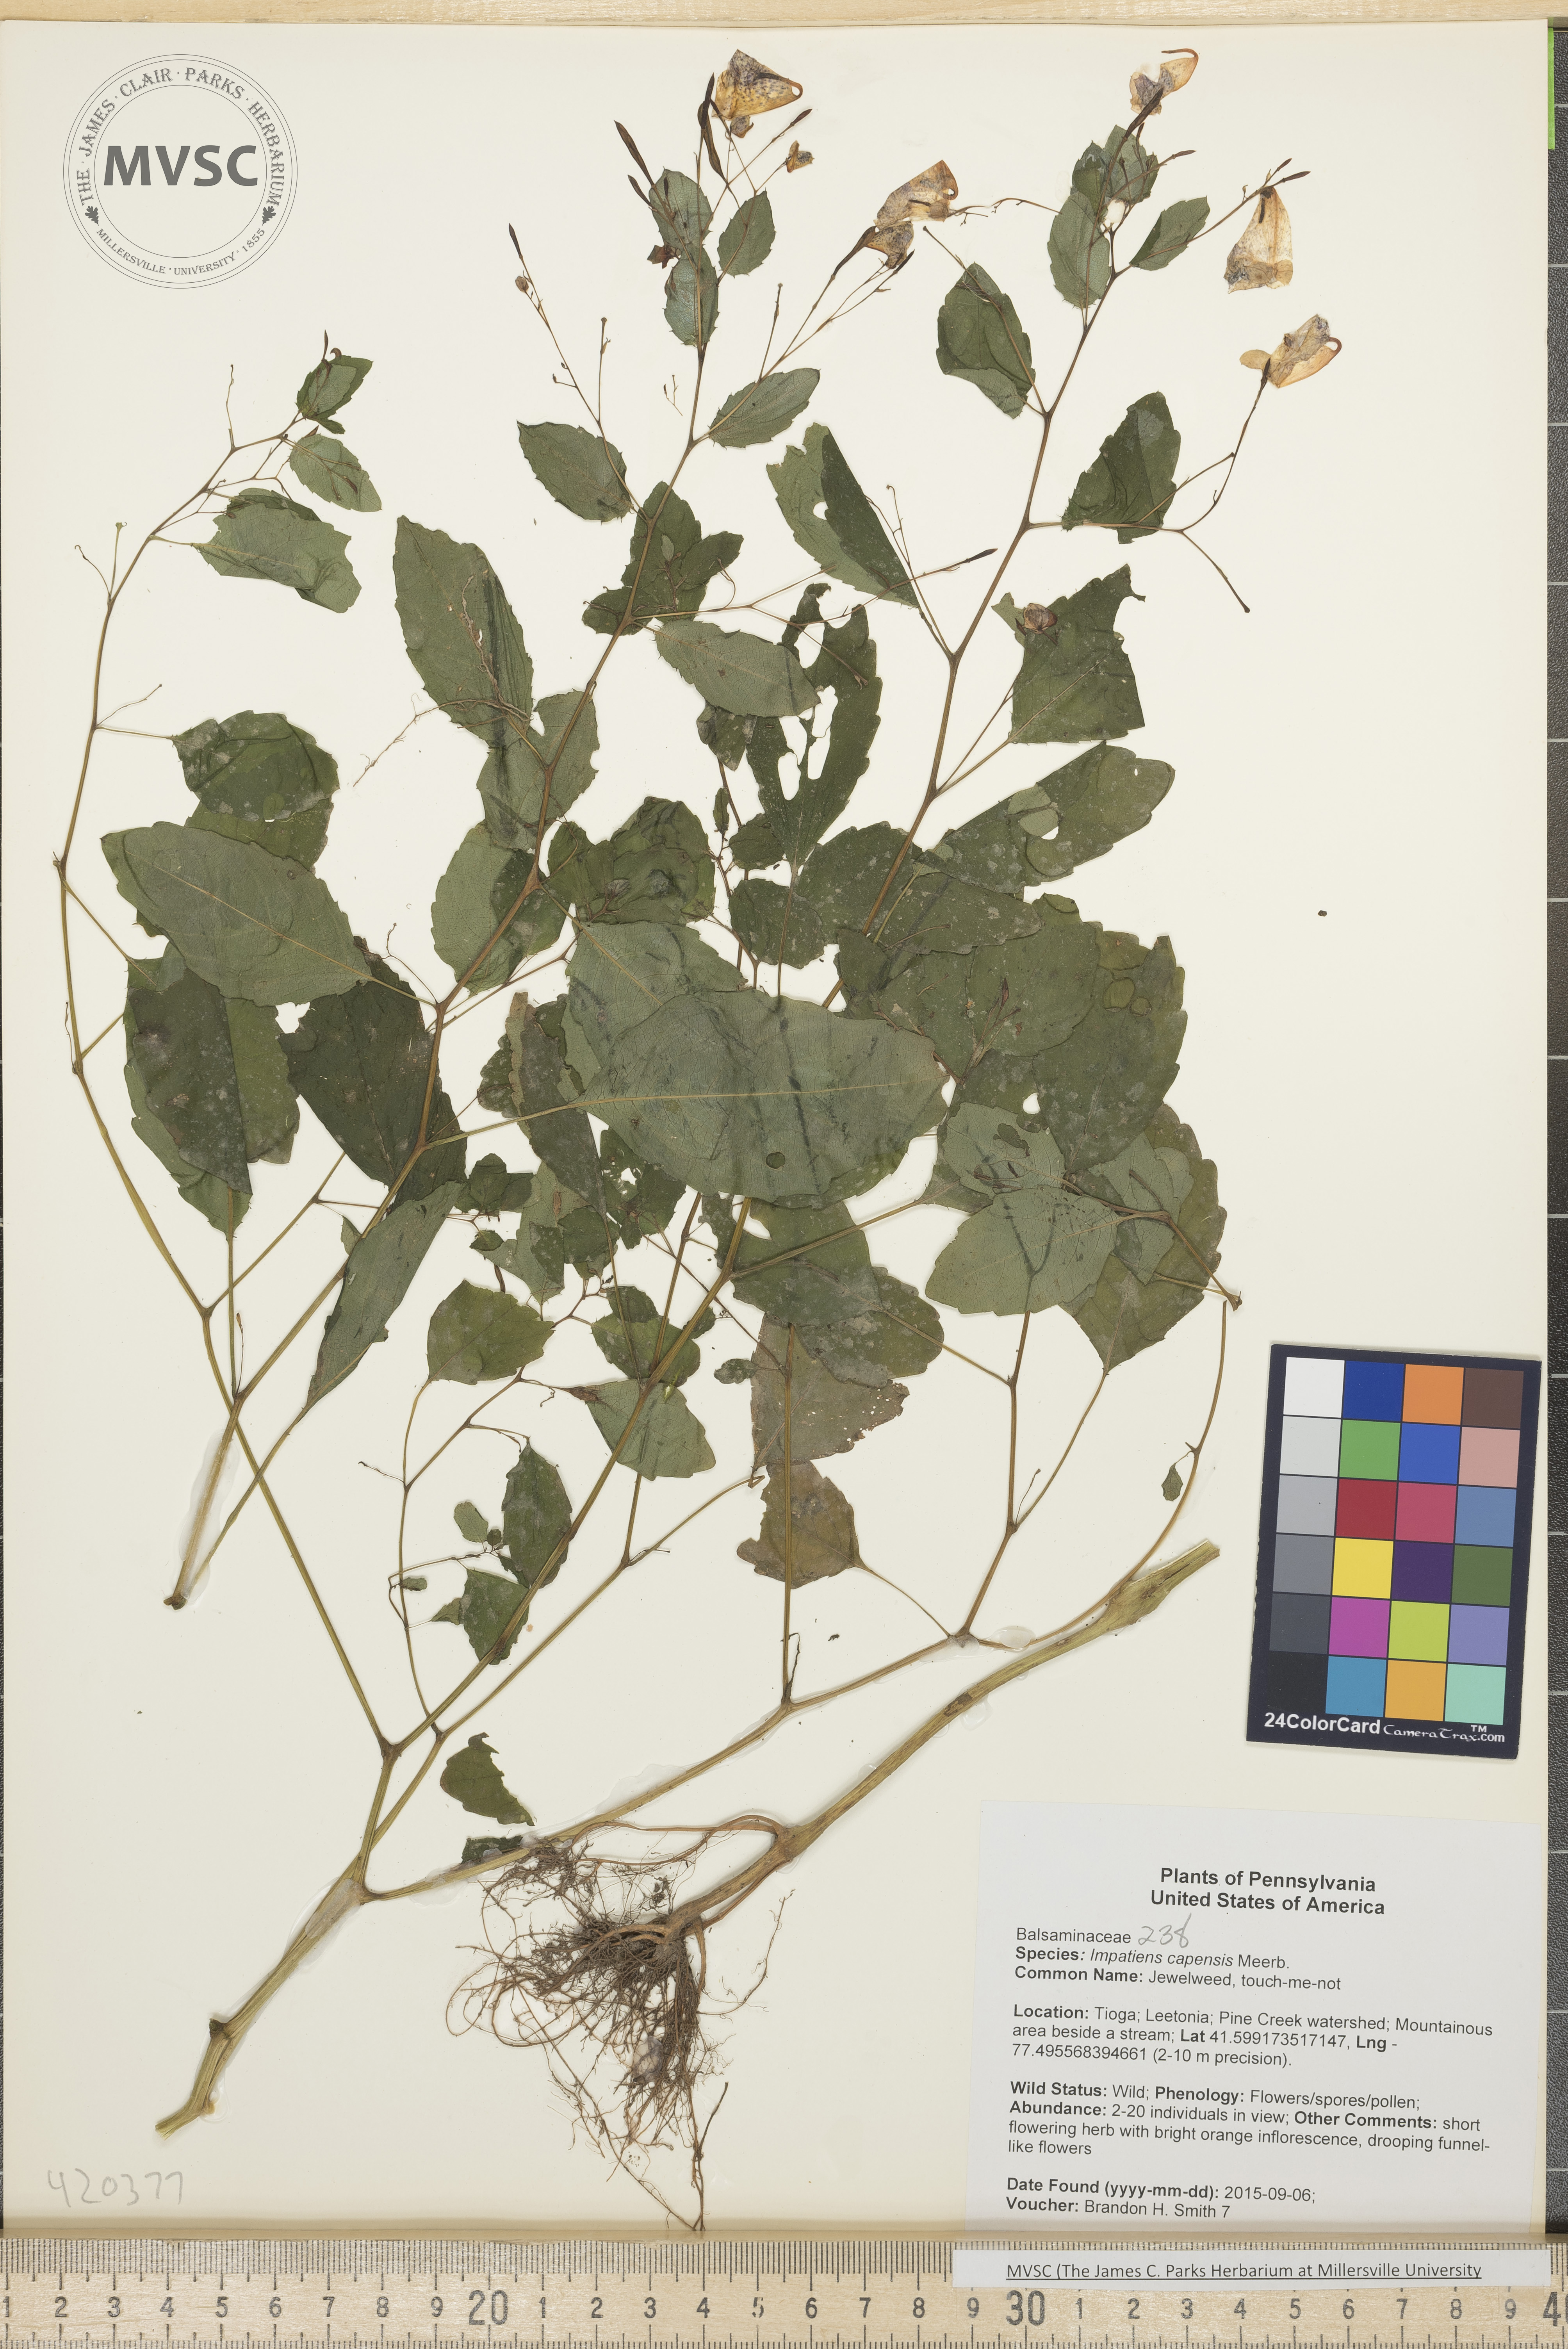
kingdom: Plantae
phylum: Tracheophyta
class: Magnoliopsida
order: Ericales
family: Balsaminaceae
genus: Impatiens
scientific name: Impatiens capensis
